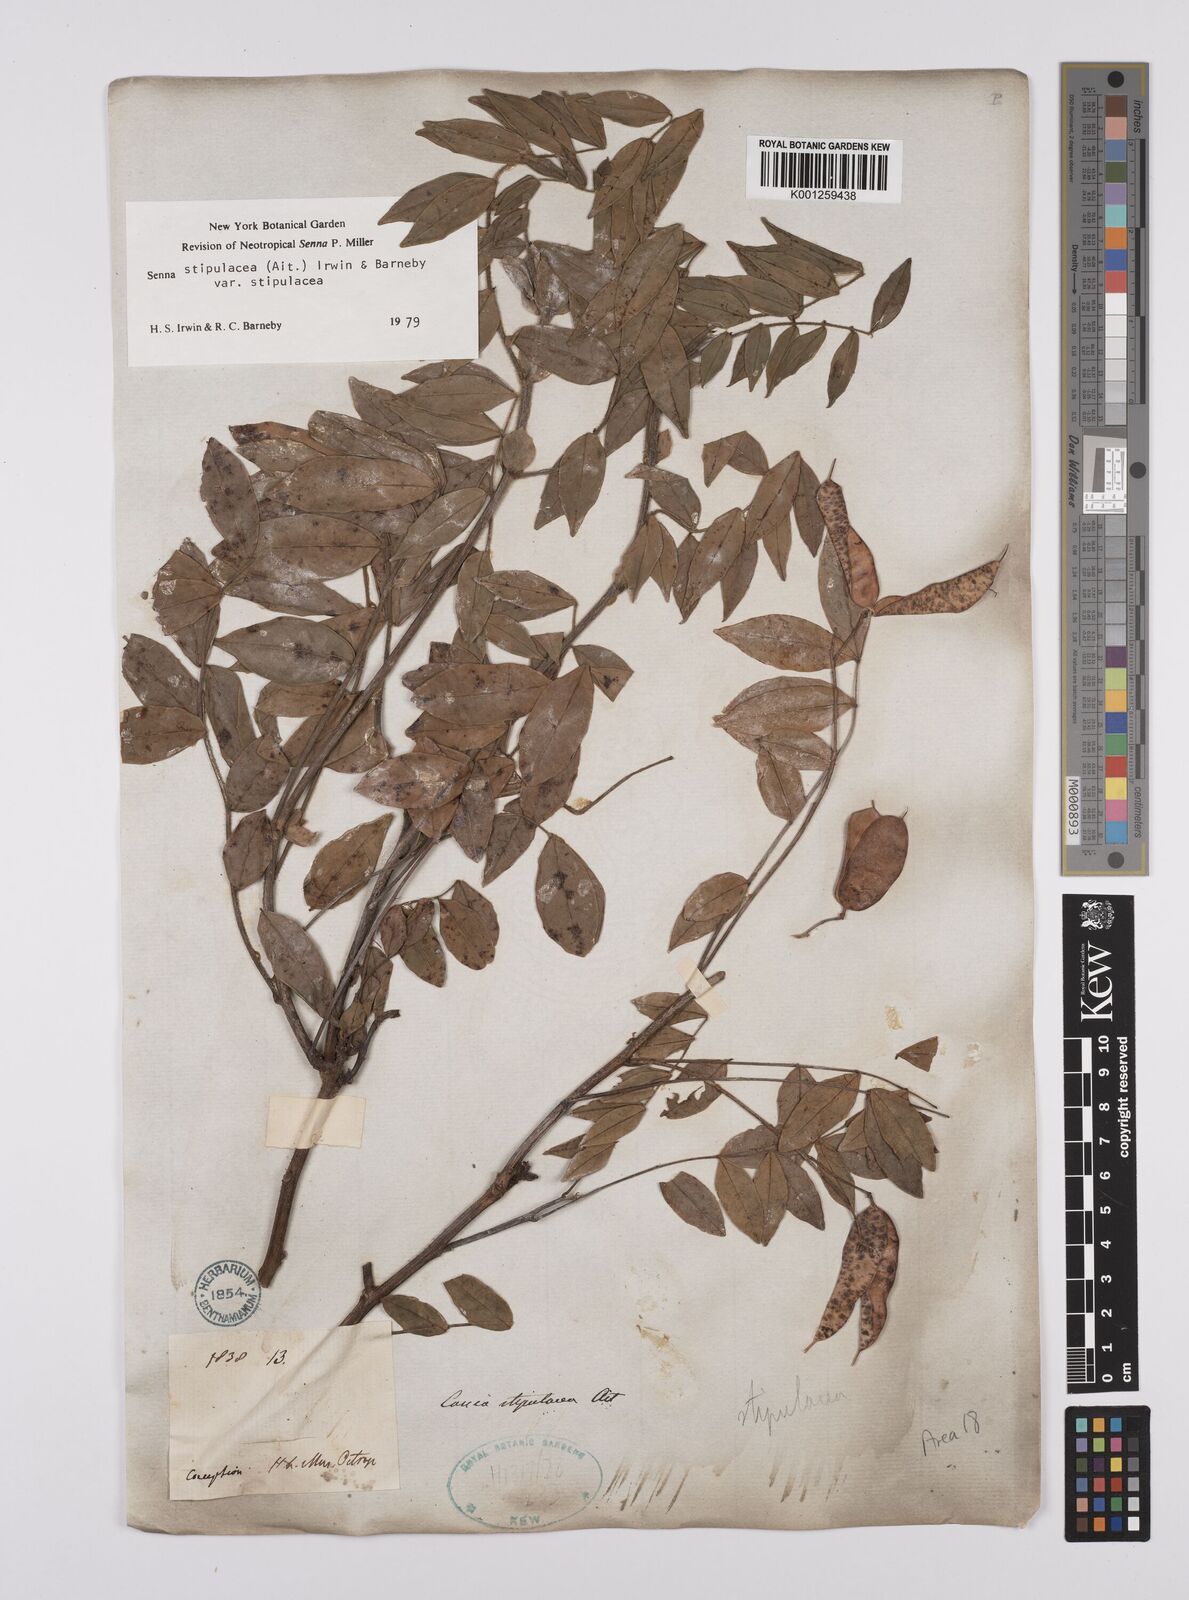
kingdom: Plantae
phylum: Tracheophyta
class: Magnoliopsida
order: Fabales
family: Fabaceae
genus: Senna
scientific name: Senna stipulacea
